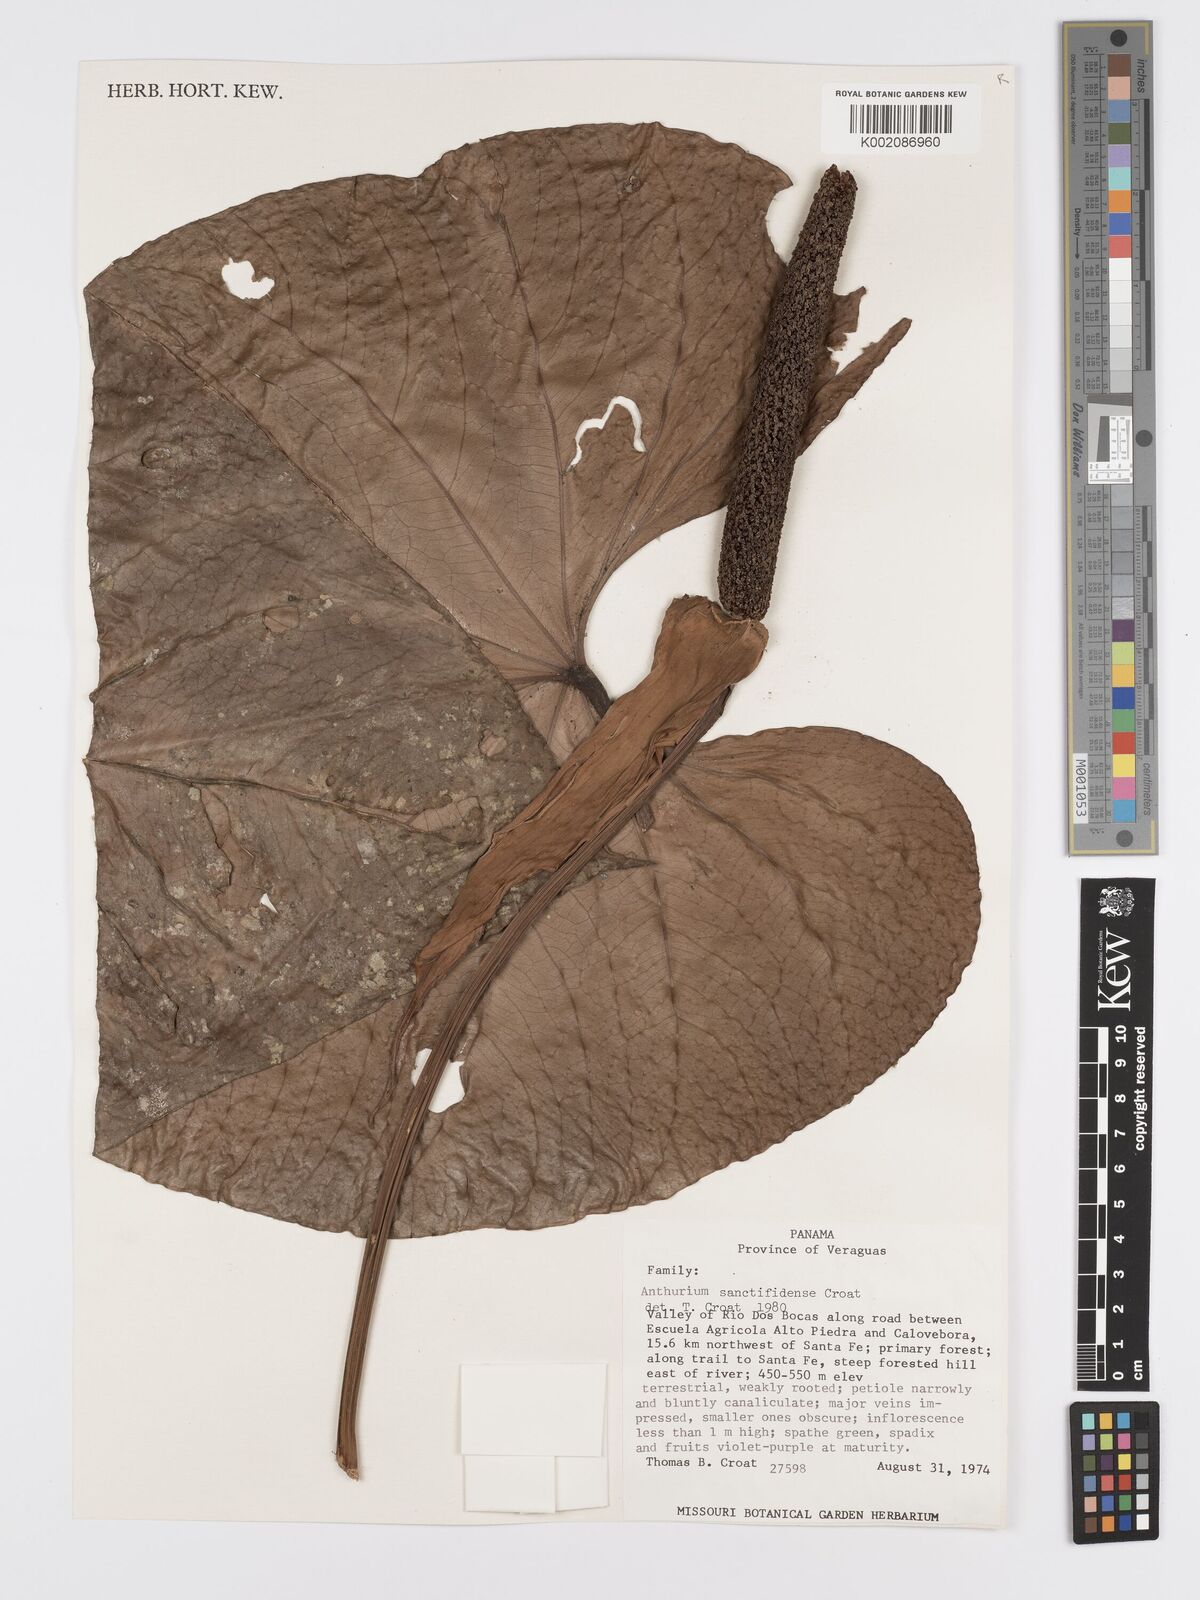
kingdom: Plantae
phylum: Tracheophyta
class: Liliopsida
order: Alismatales
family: Araceae
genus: Anthurium
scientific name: Anthurium sanctifidense
